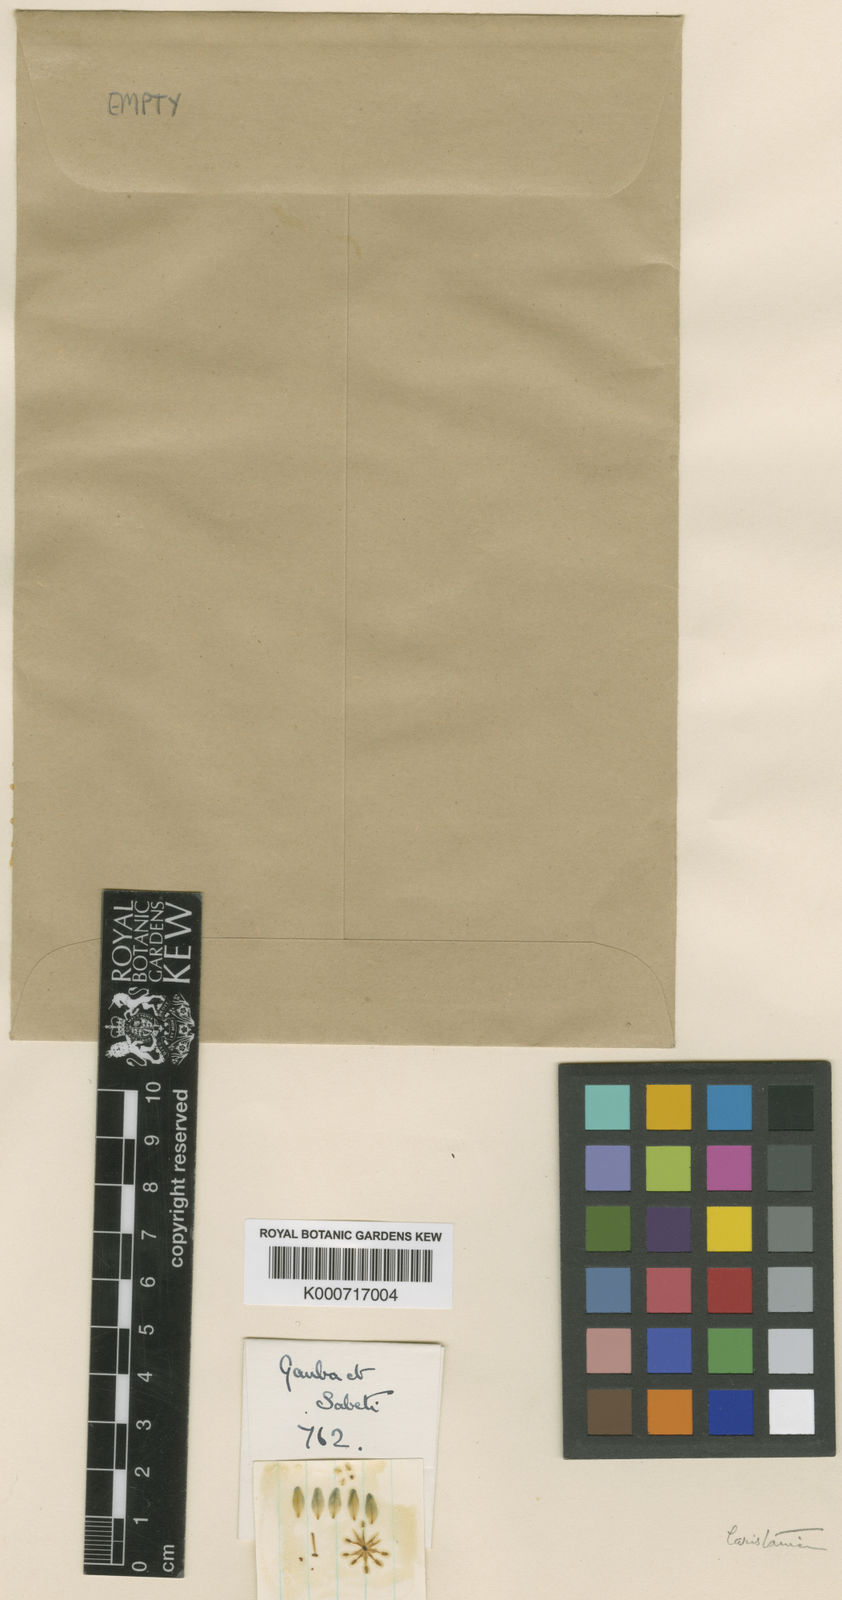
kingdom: Plantae
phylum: Tracheophyta
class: Magnoliopsida
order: Sapindales
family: Rutaceae
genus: Haplophyllum
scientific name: Haplophyllum laristanicum
